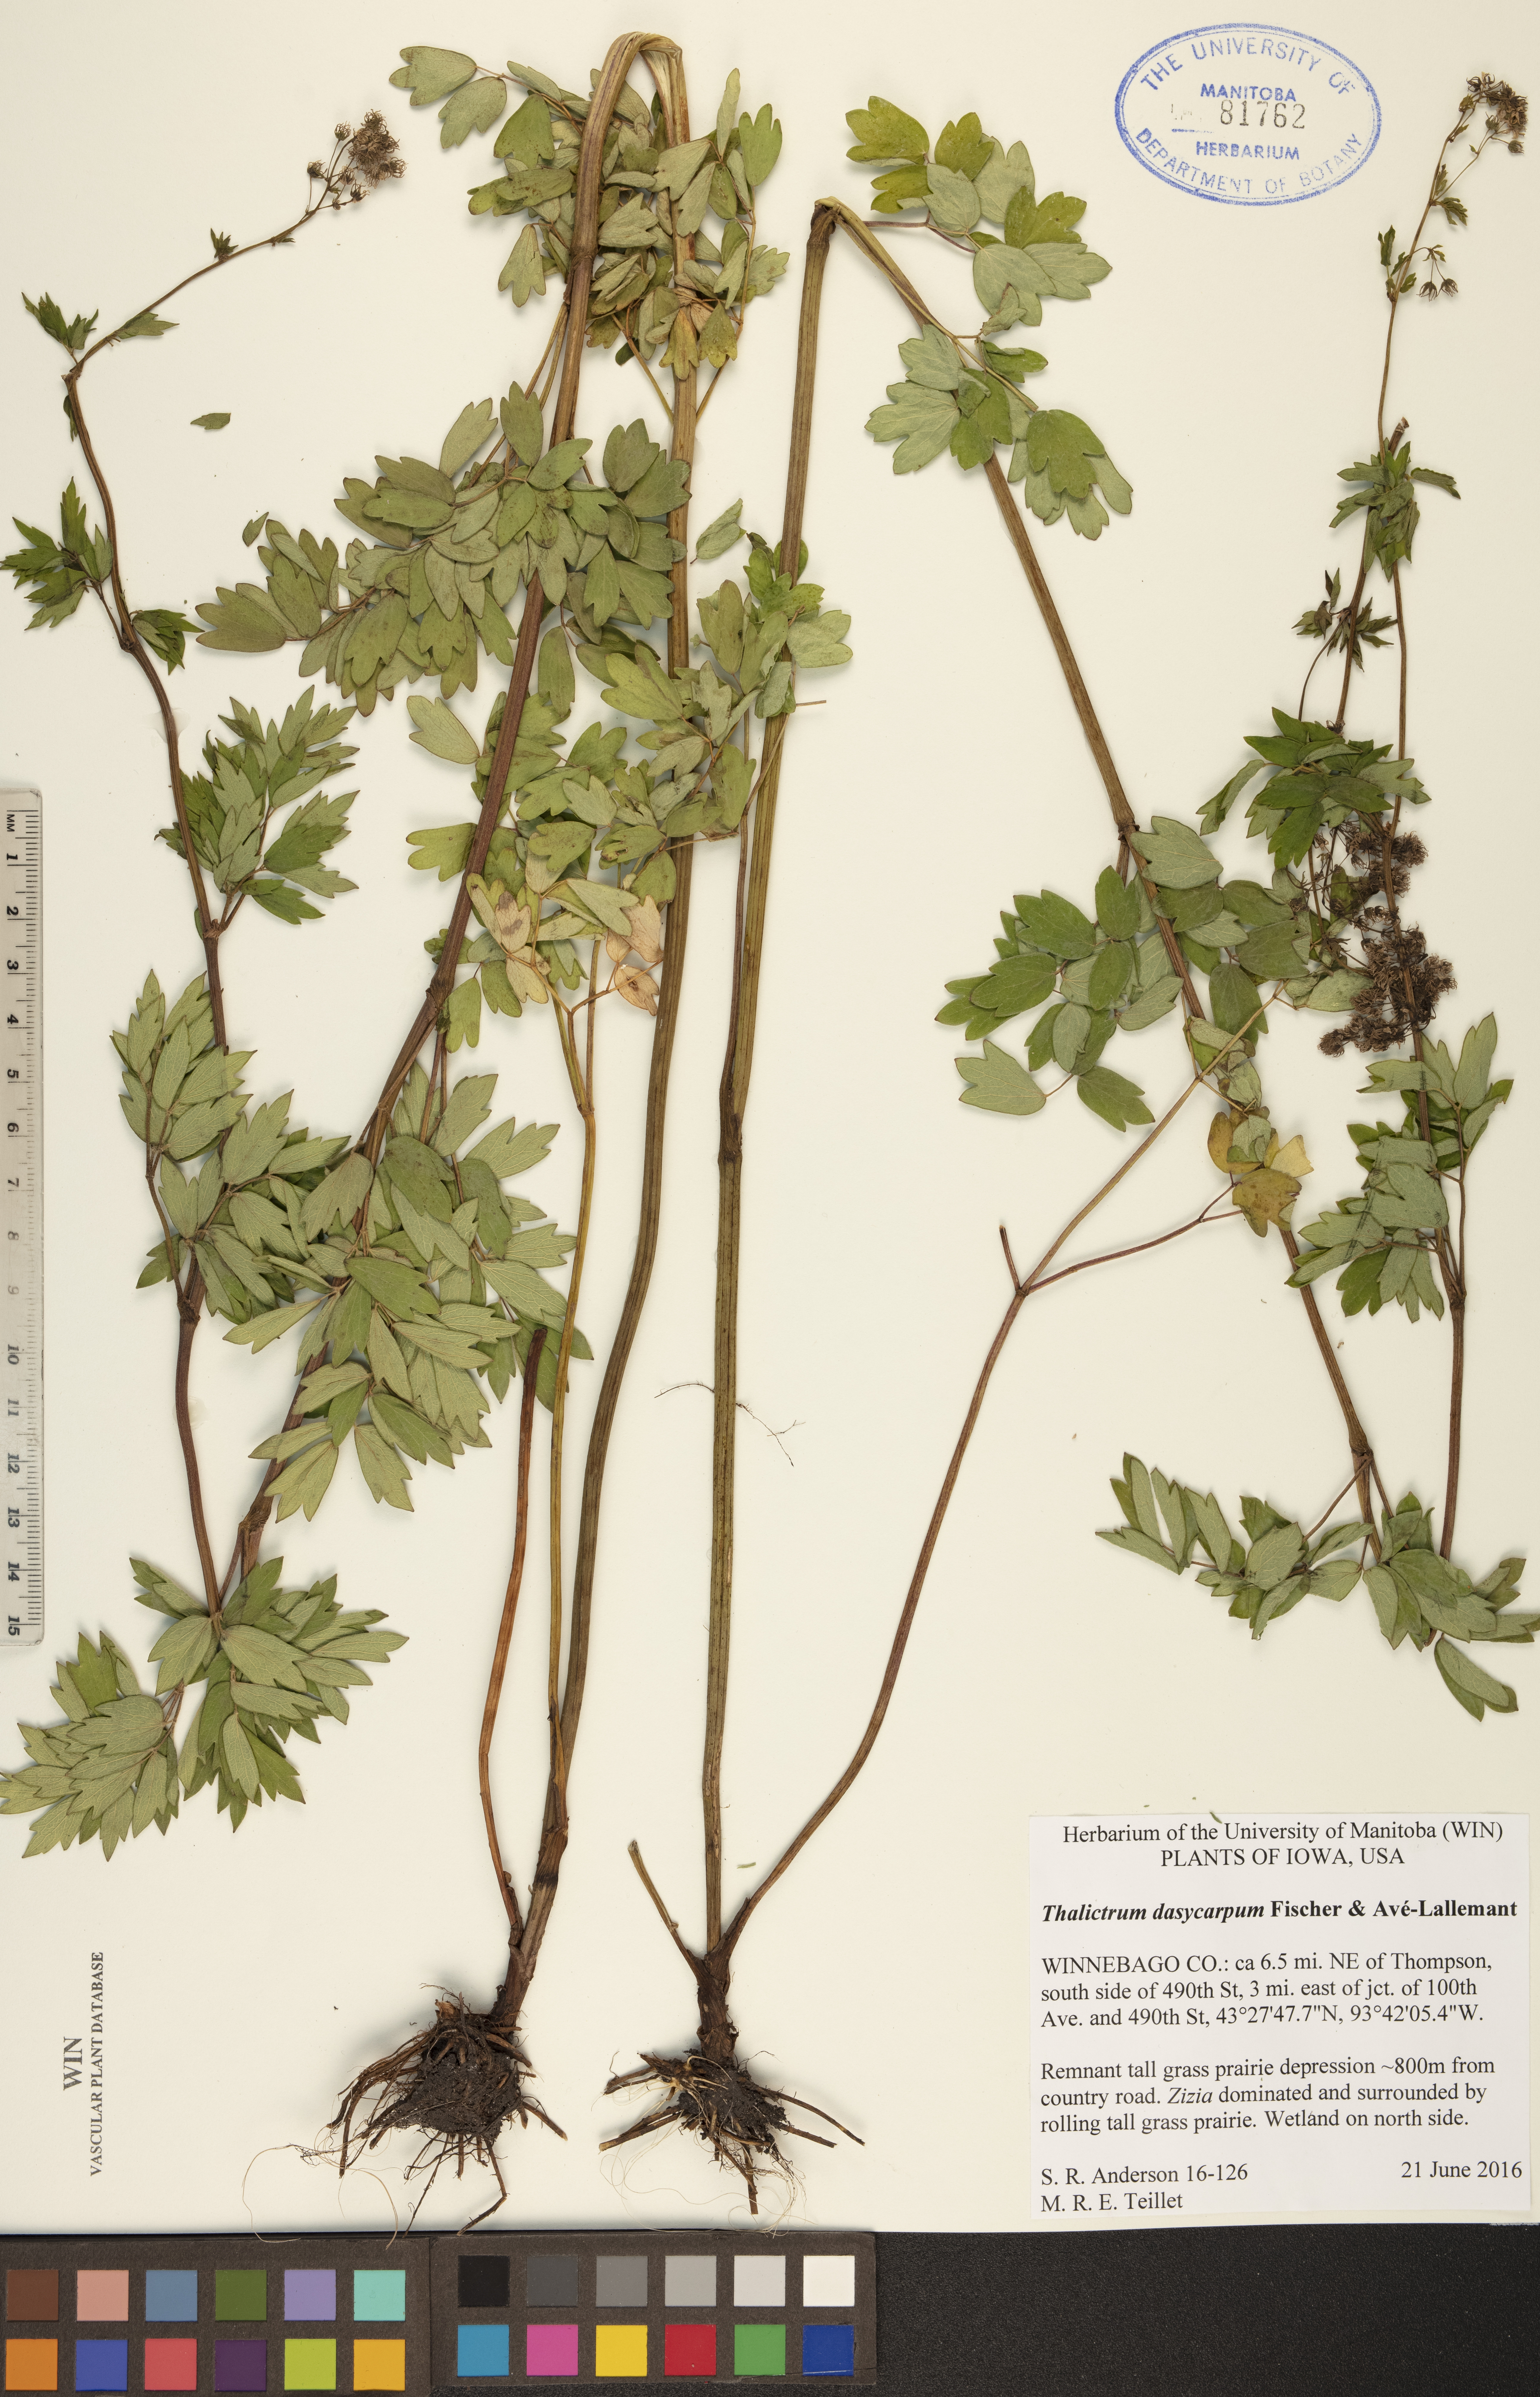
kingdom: Plantae
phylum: Tracheophyta
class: Magnoliopsida
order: Ranunculales
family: Ranunculaceae
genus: Thalictrum
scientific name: Thalictrum dasycarpum
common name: Purple meadow-rue
